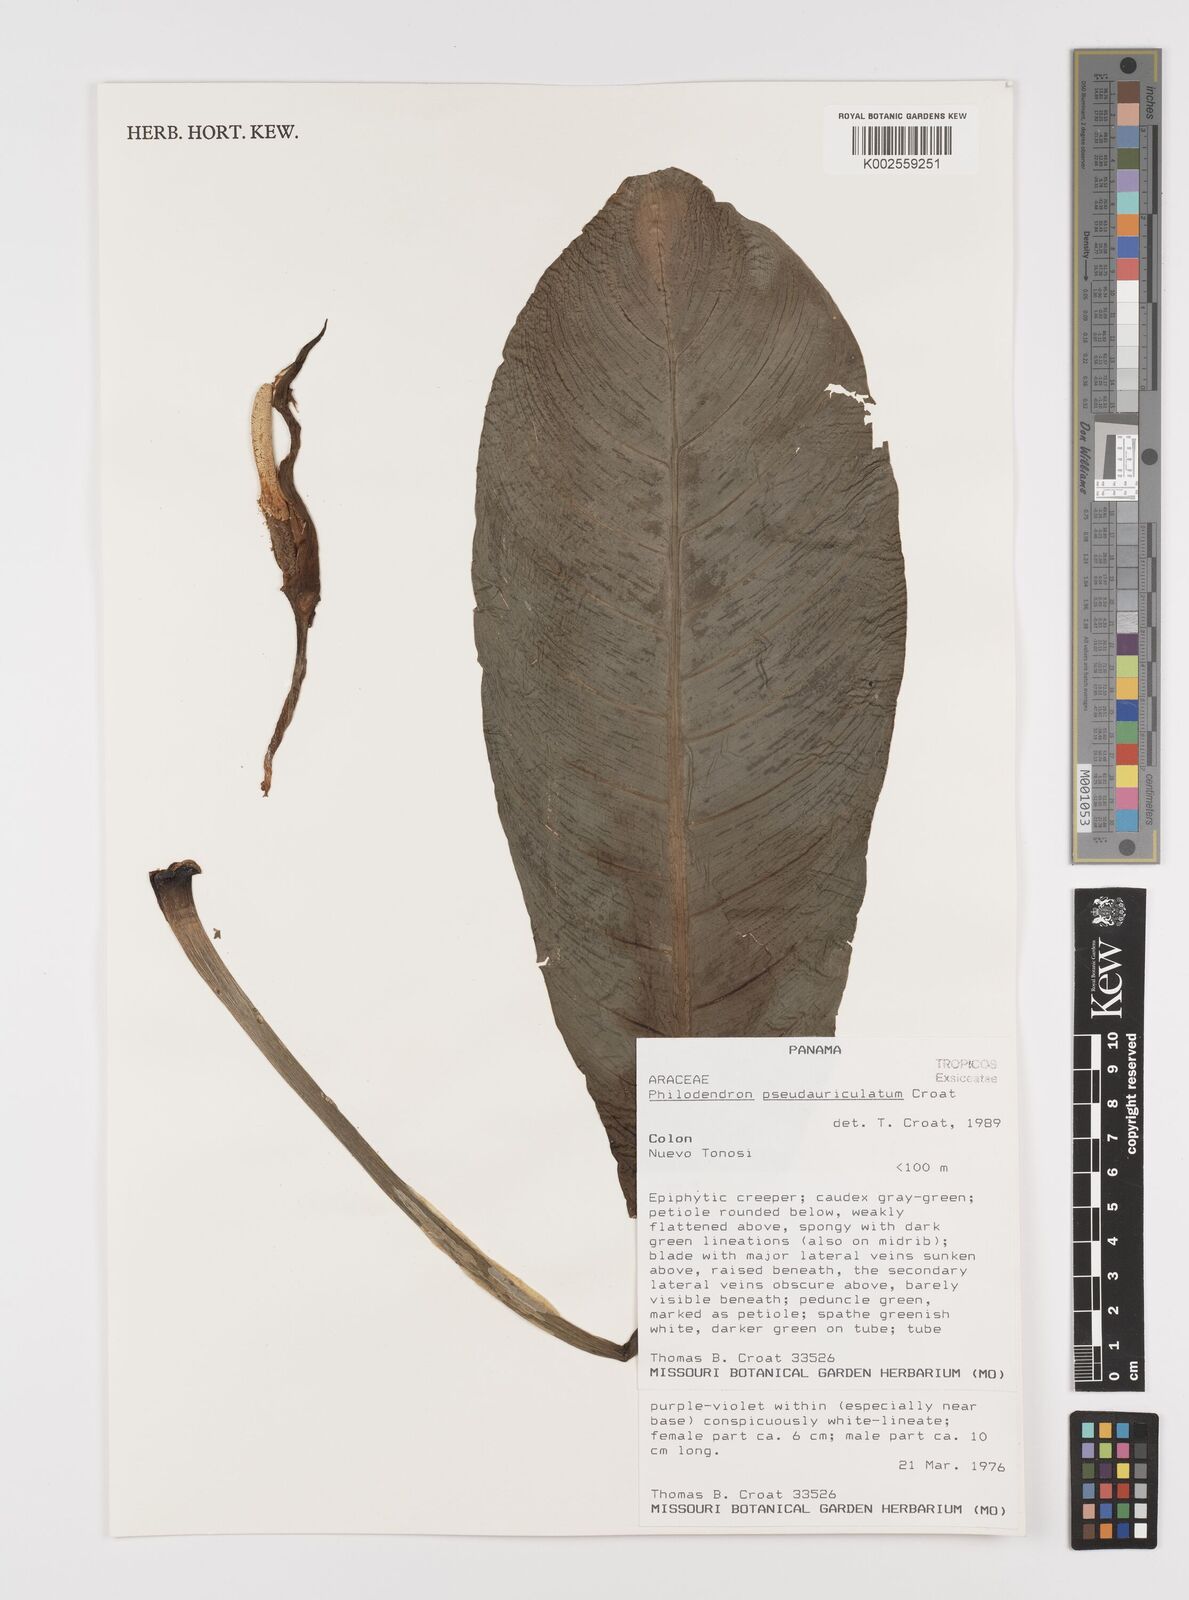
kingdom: Plantae
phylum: Tracheophyta
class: Liliopsida
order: Alismatales
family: Araceae
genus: Philodendron
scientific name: Philodendron pseudauriculatum
